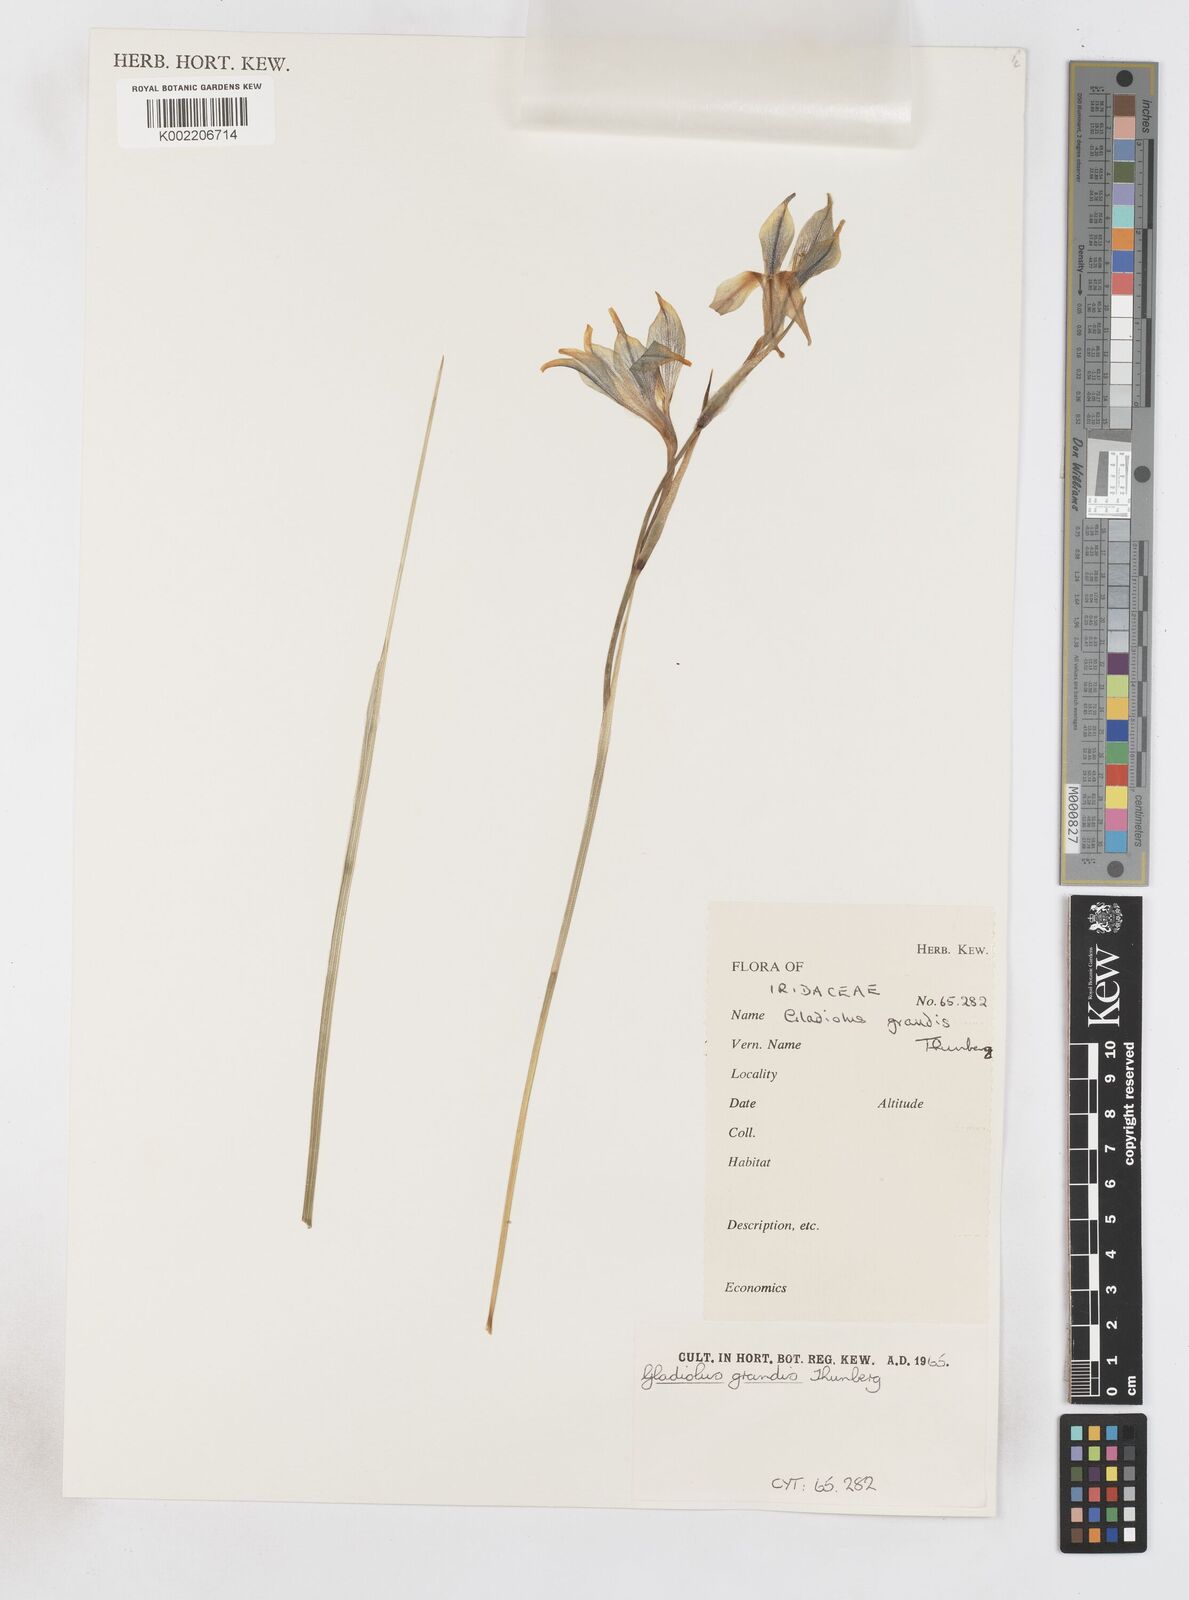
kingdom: Plantae
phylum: Tracheophyta
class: Liliopsida
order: Asparagales
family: Iridaceae
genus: Gladiolus
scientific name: Gladiolus liliaceus
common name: Large brown afrikaner
